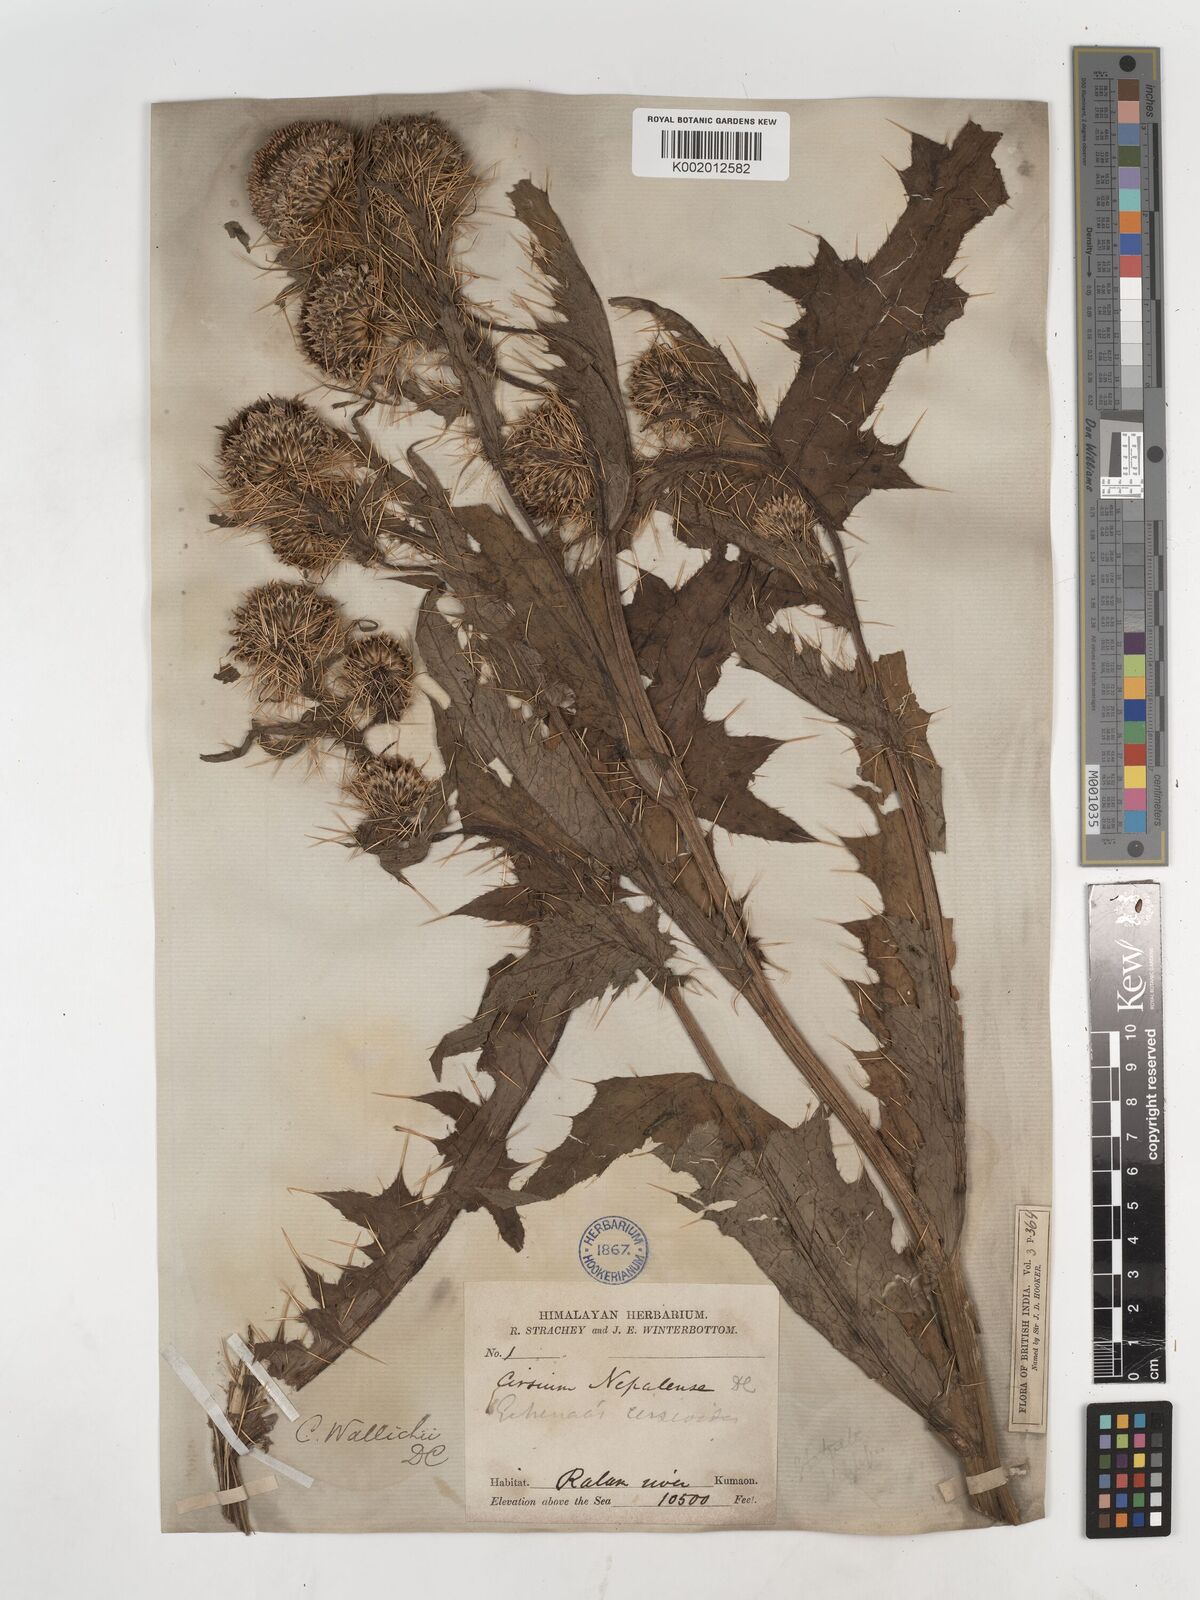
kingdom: Plantae
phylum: Tracheophyta
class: Magnoliopsida
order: Asterales
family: Asteraceae
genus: Cirsium
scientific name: Cirsium wallichii
